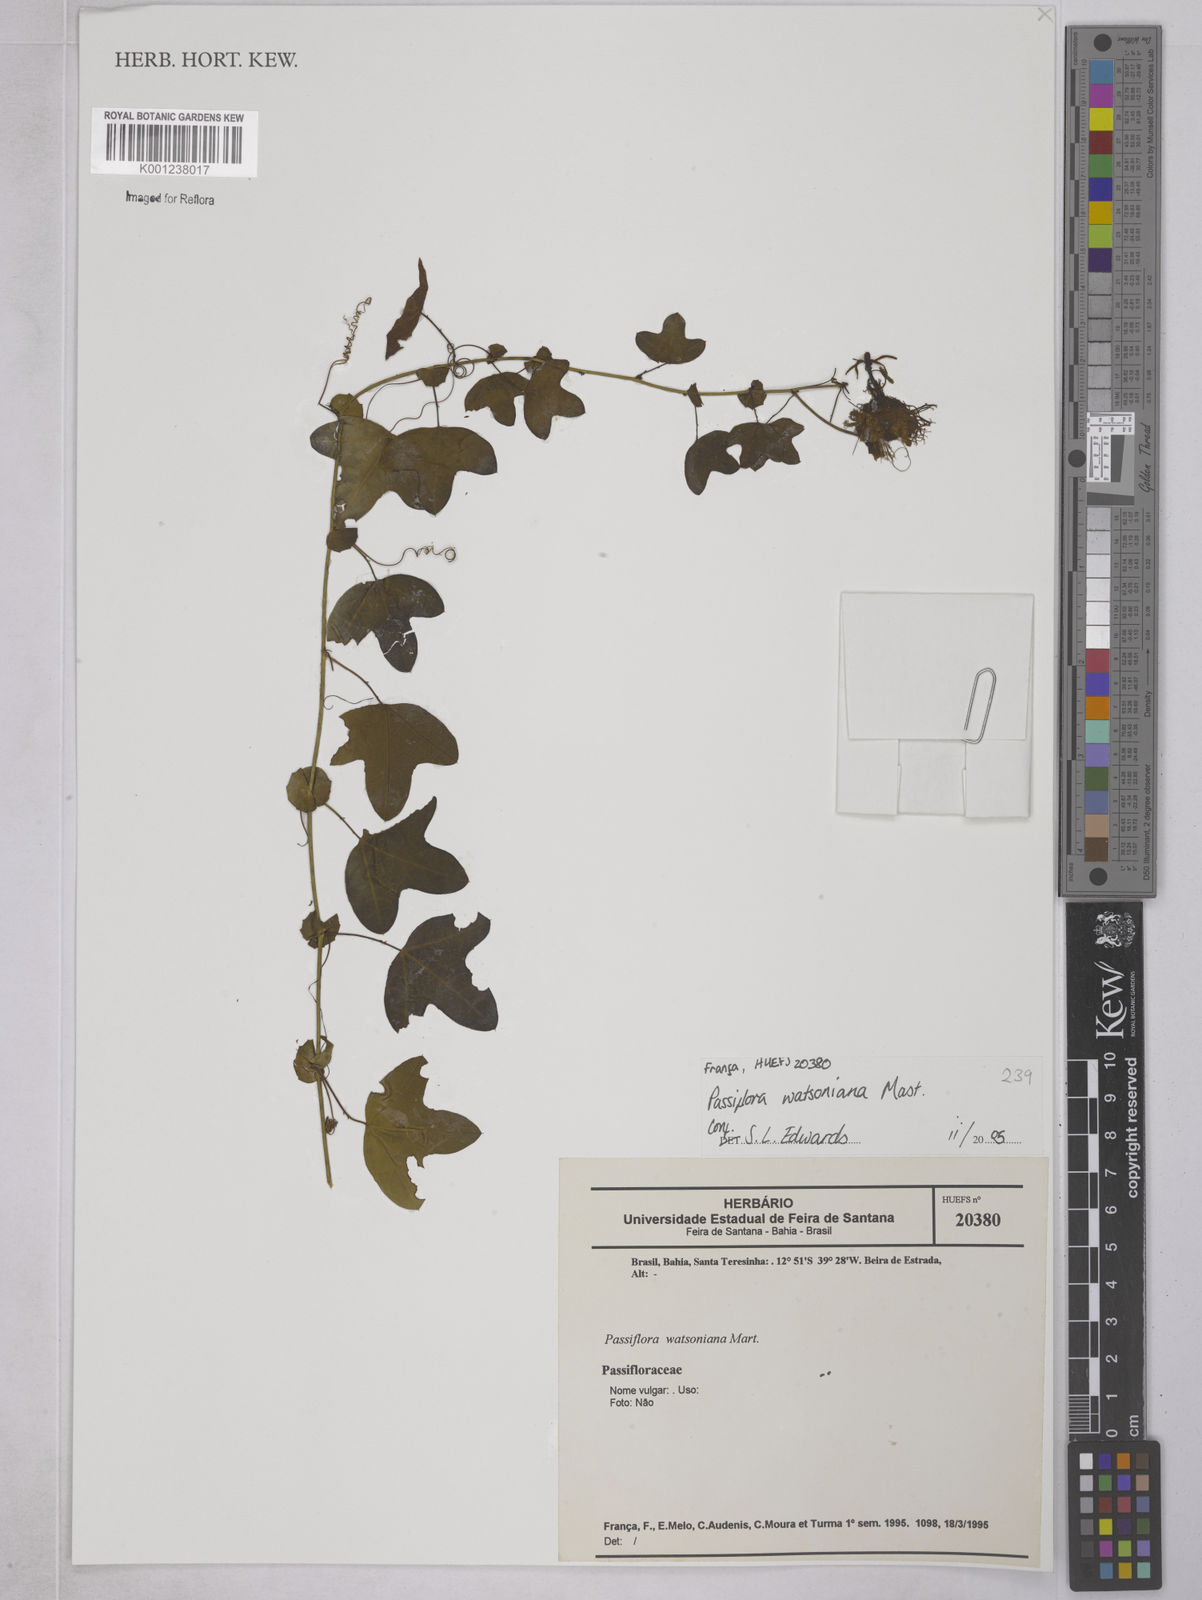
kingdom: Plantae
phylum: Tracheophyta
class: Magnoliopsida
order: Malpighiales
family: Passifloraceae
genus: Passiflora
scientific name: Passiflora watsoniana
